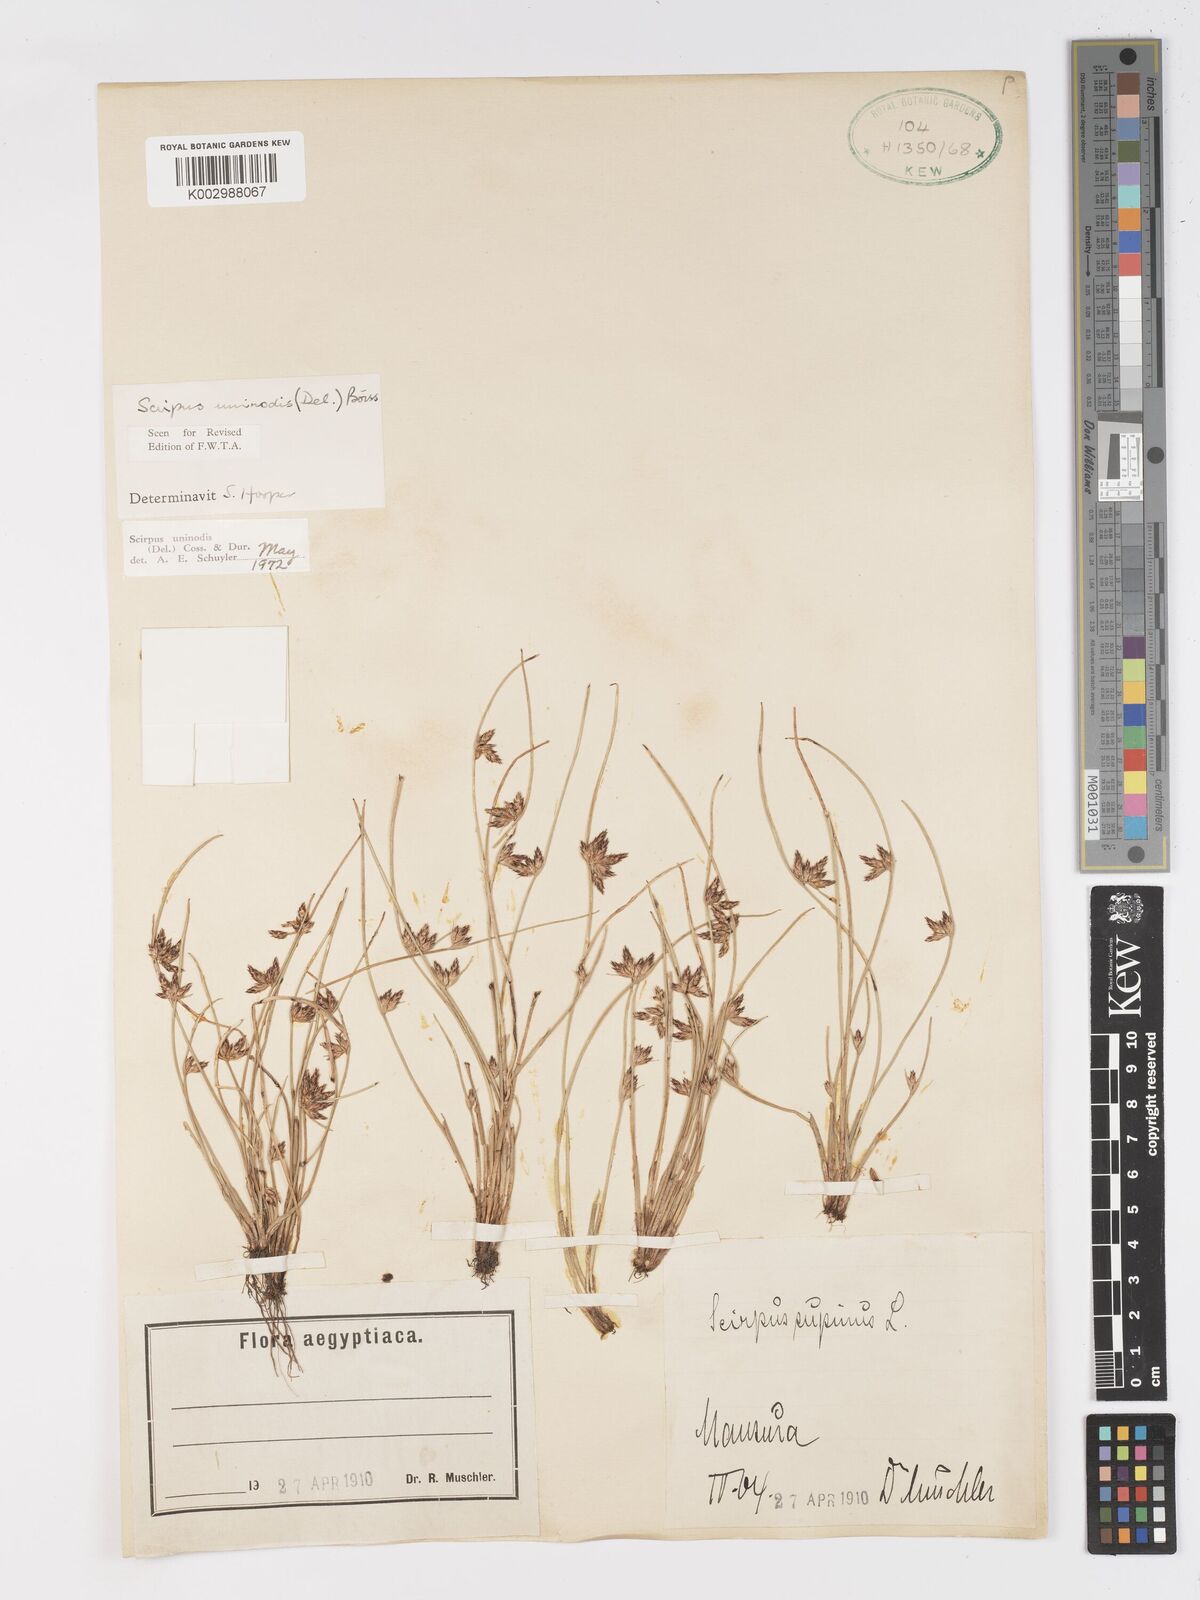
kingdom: Plantae
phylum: Tracheophyta
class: Liliopsida
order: Poales
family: Cyperaceae
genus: Schoenoplectus
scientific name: Schoenoplectus
